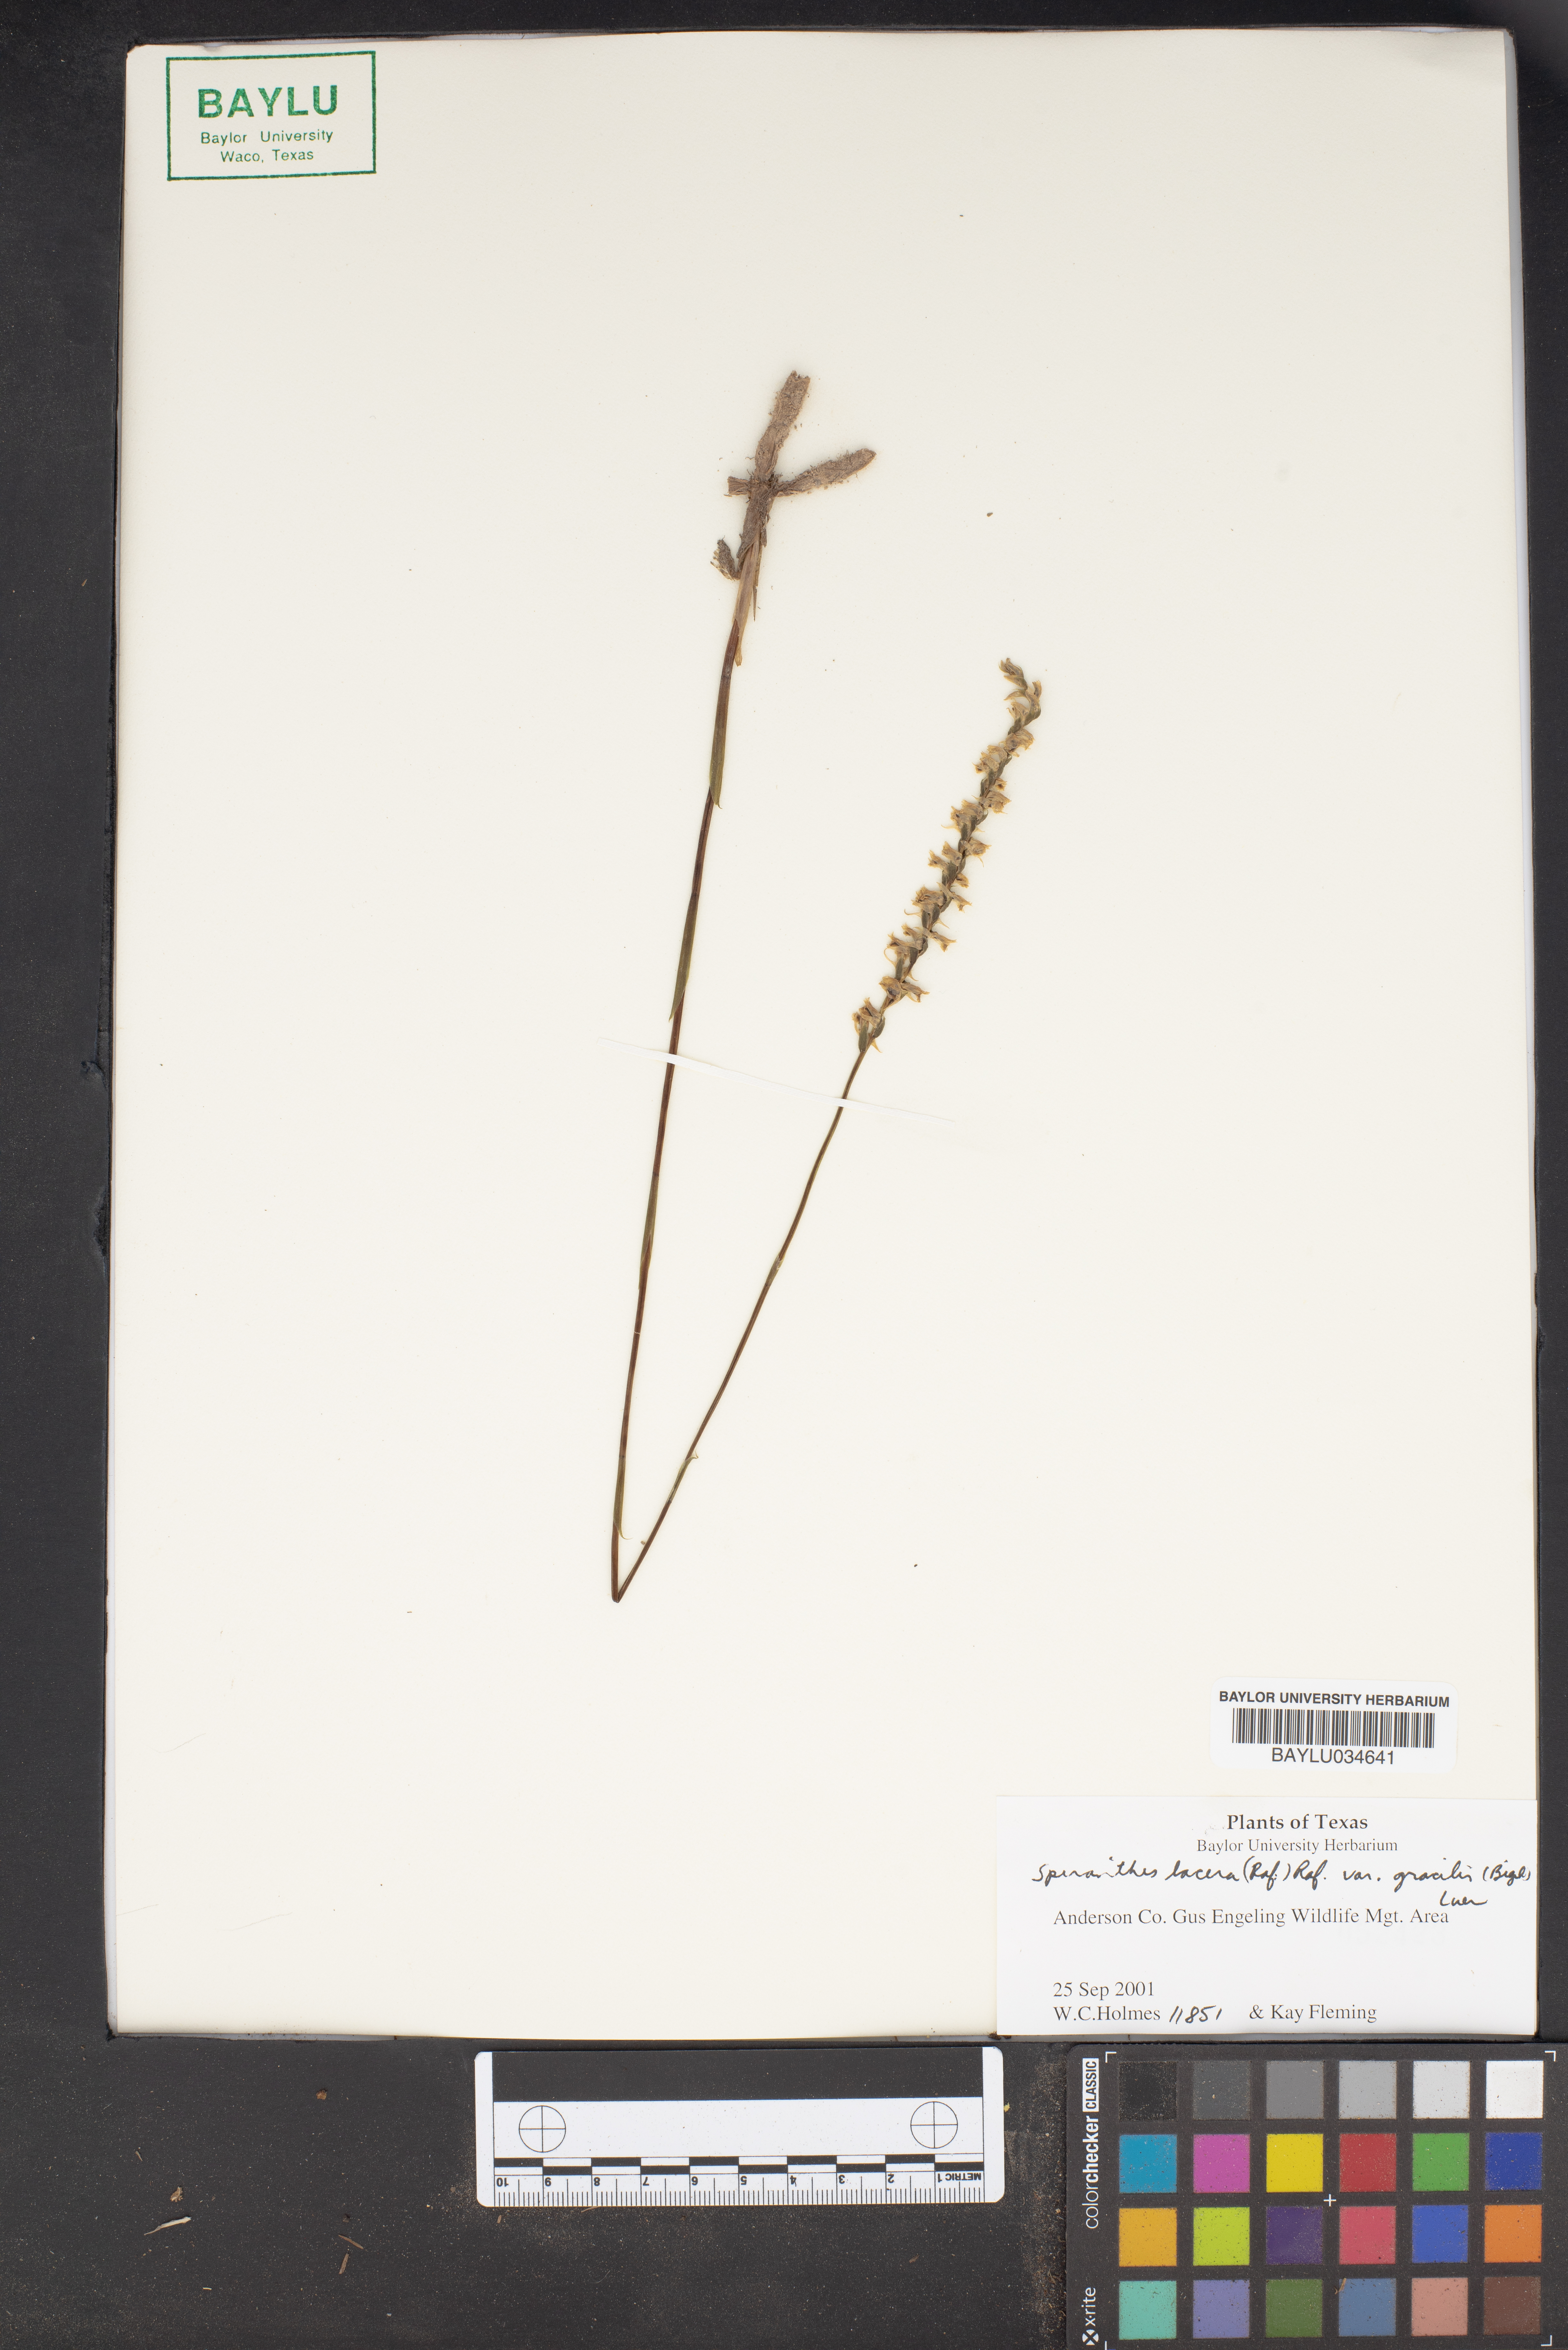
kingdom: Plantae
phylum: Tracheophyta
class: Liliopsida
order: Asparagales
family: Orchidaceae
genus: Spiranthes
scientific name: Spiranthes lacera
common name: Northern slender ladies'-tresses
